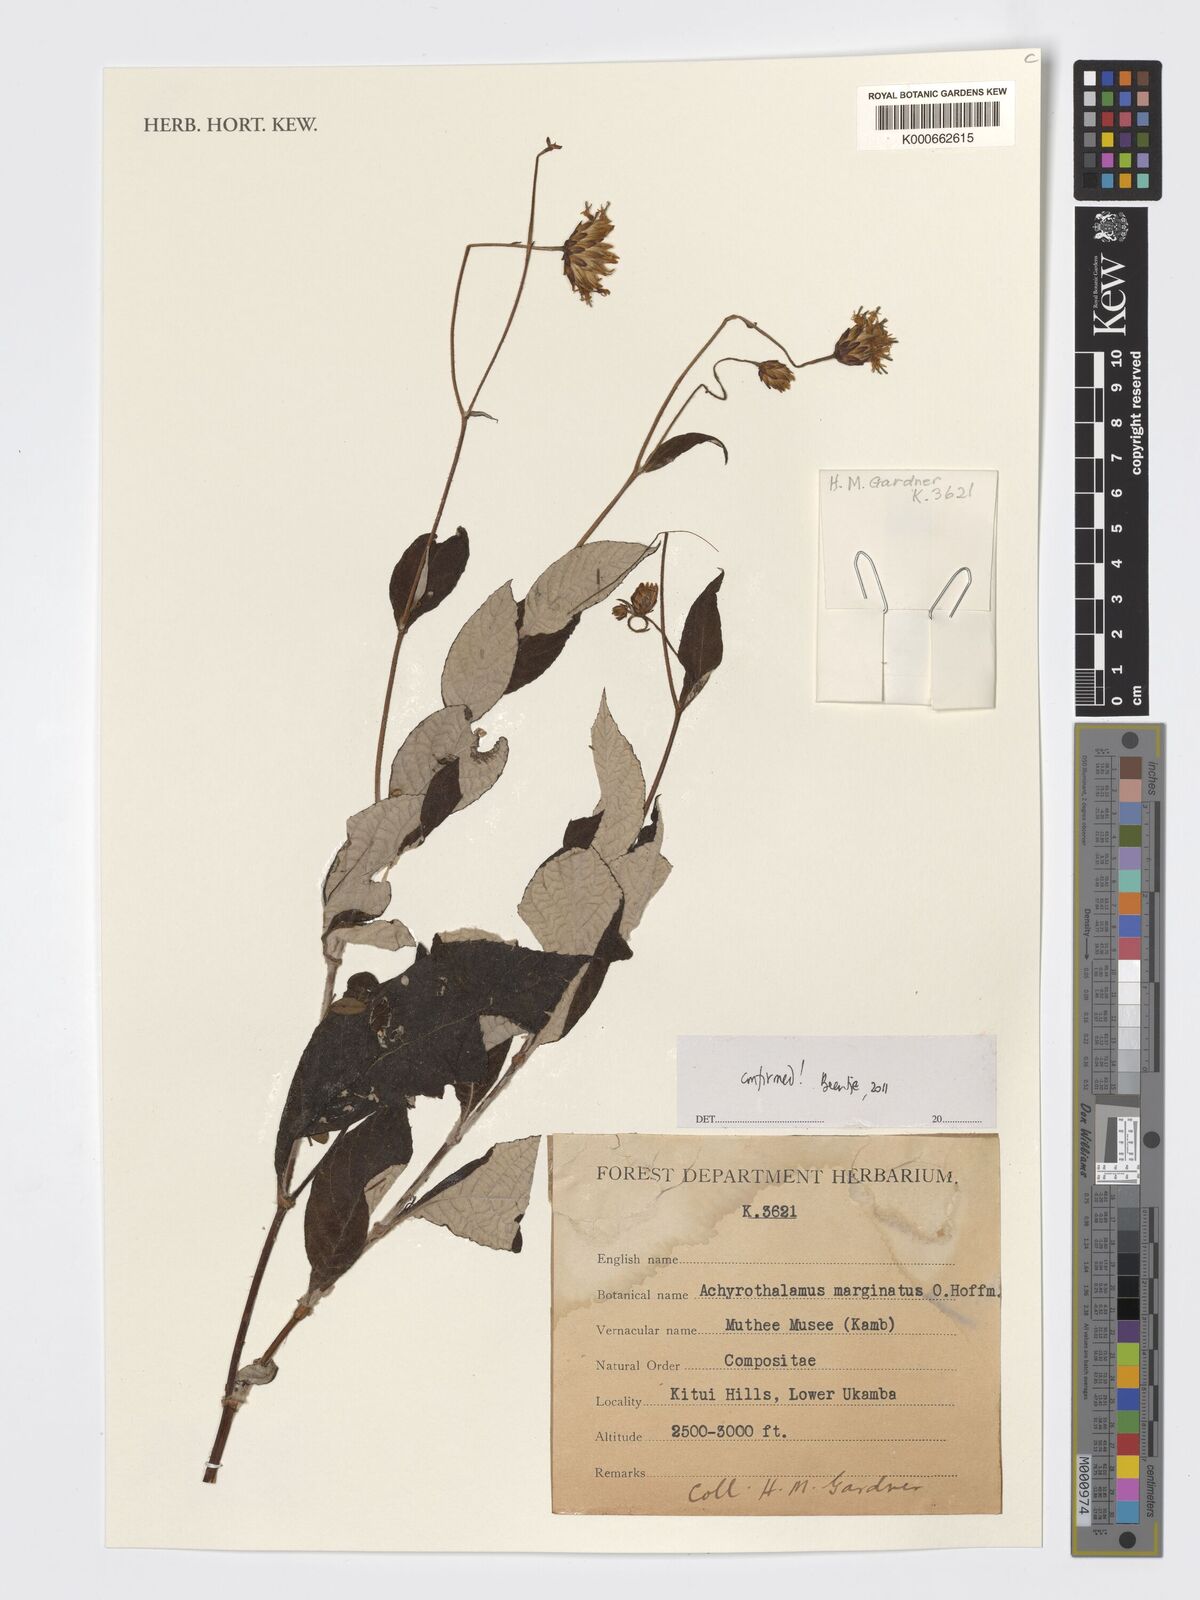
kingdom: Plantae
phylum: Tracheophyta
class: Magnoliopsida
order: Asterales
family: Asteraceae
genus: Erythrocephalum
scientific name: Erythrocephalum marginatum
